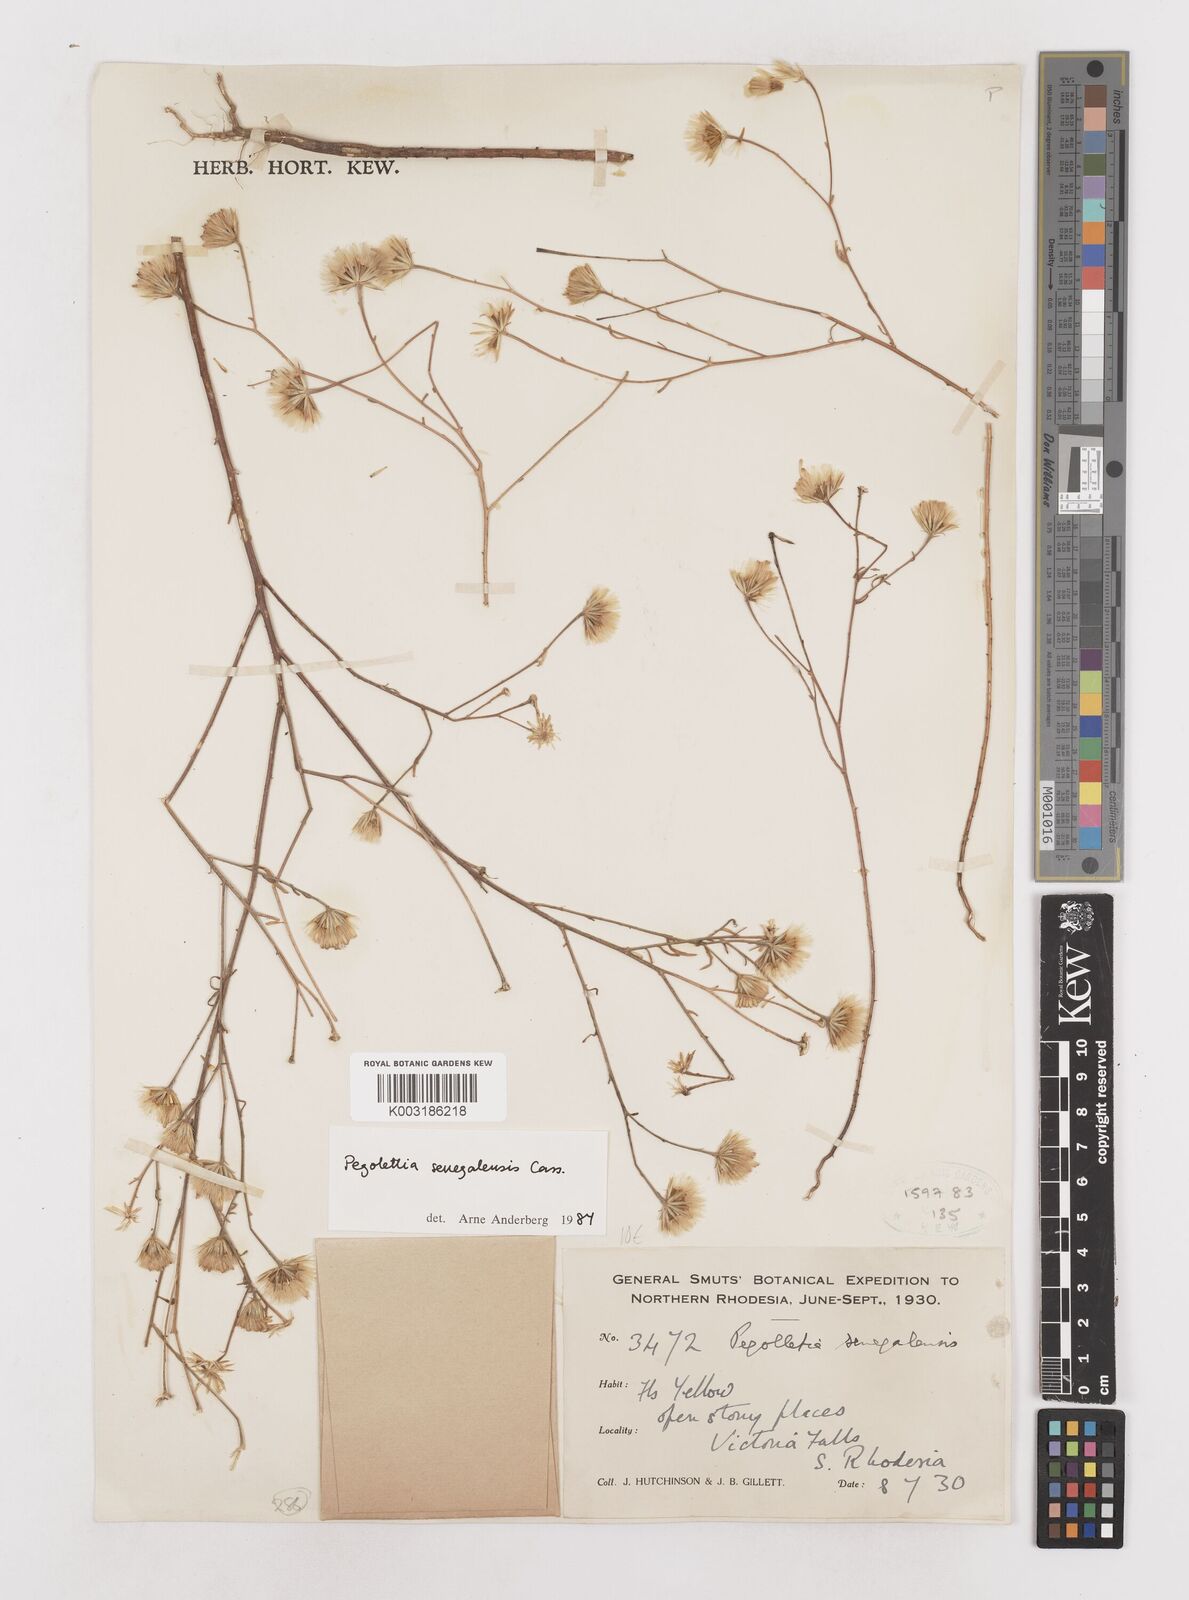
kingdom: Plantae
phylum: Tracheophyta
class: Magnoliopsida
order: Asterales
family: Asteraceae
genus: Pegolettia
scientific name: Pegolettia senegalensis
